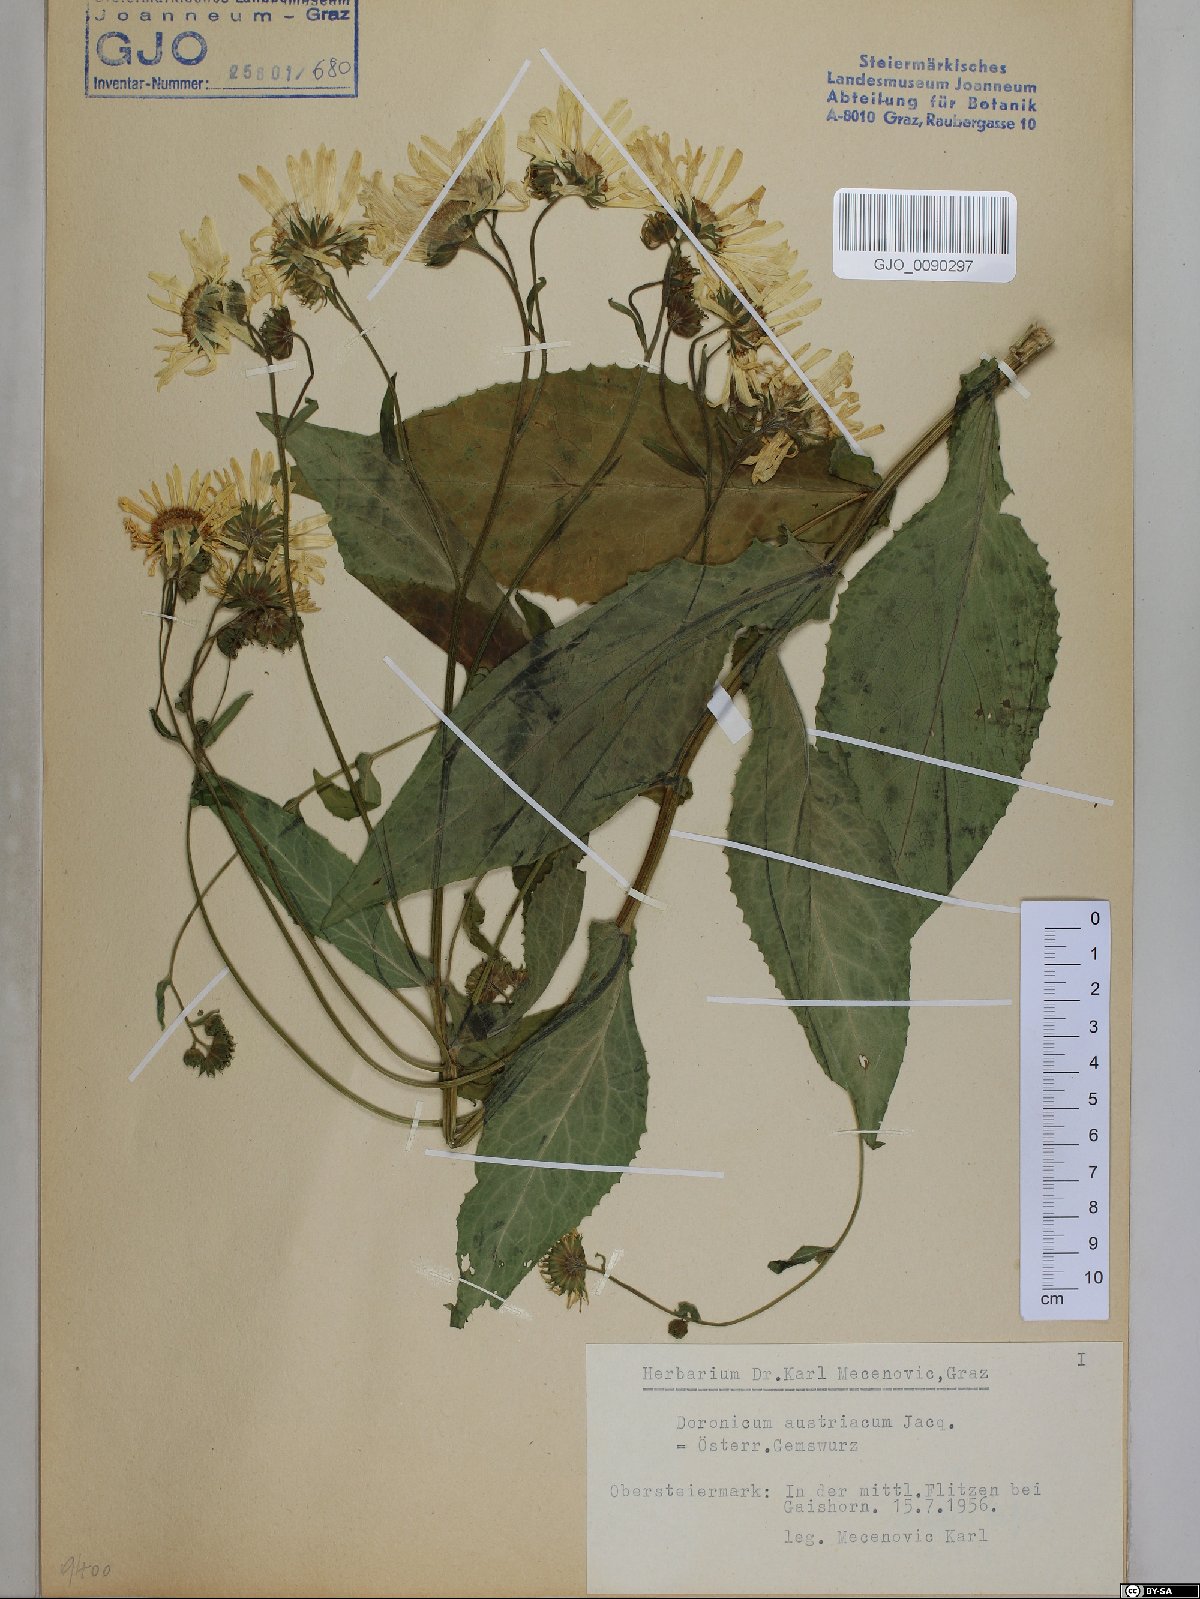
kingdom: Plantae
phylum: Tracheophyta
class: Magnoliopsida
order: Asterales
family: Asteraceae
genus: Doronicum
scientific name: Doronicum austriacum
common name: Austrian leopard's-bane
